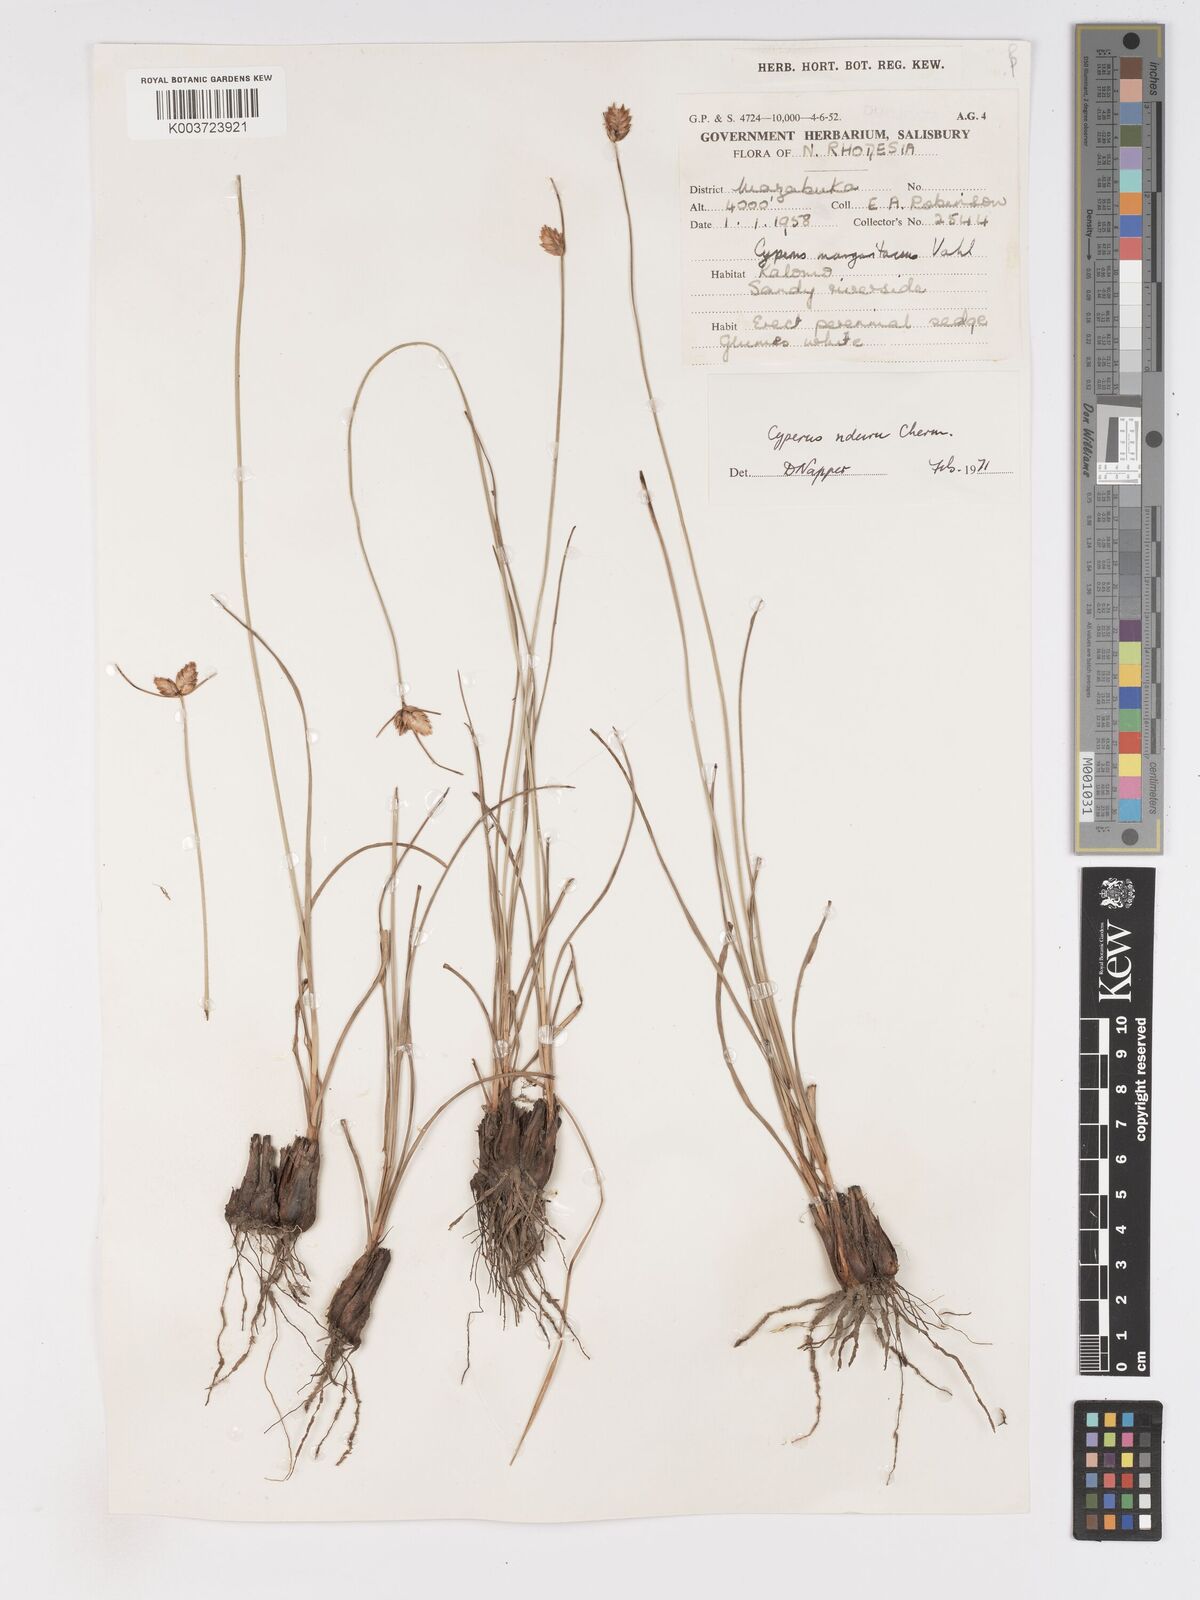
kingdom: Plantae
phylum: Tracheophyta
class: Liliopsida
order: Poales
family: Cyperaceae
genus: Cyperus
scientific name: Cyperus nduru
